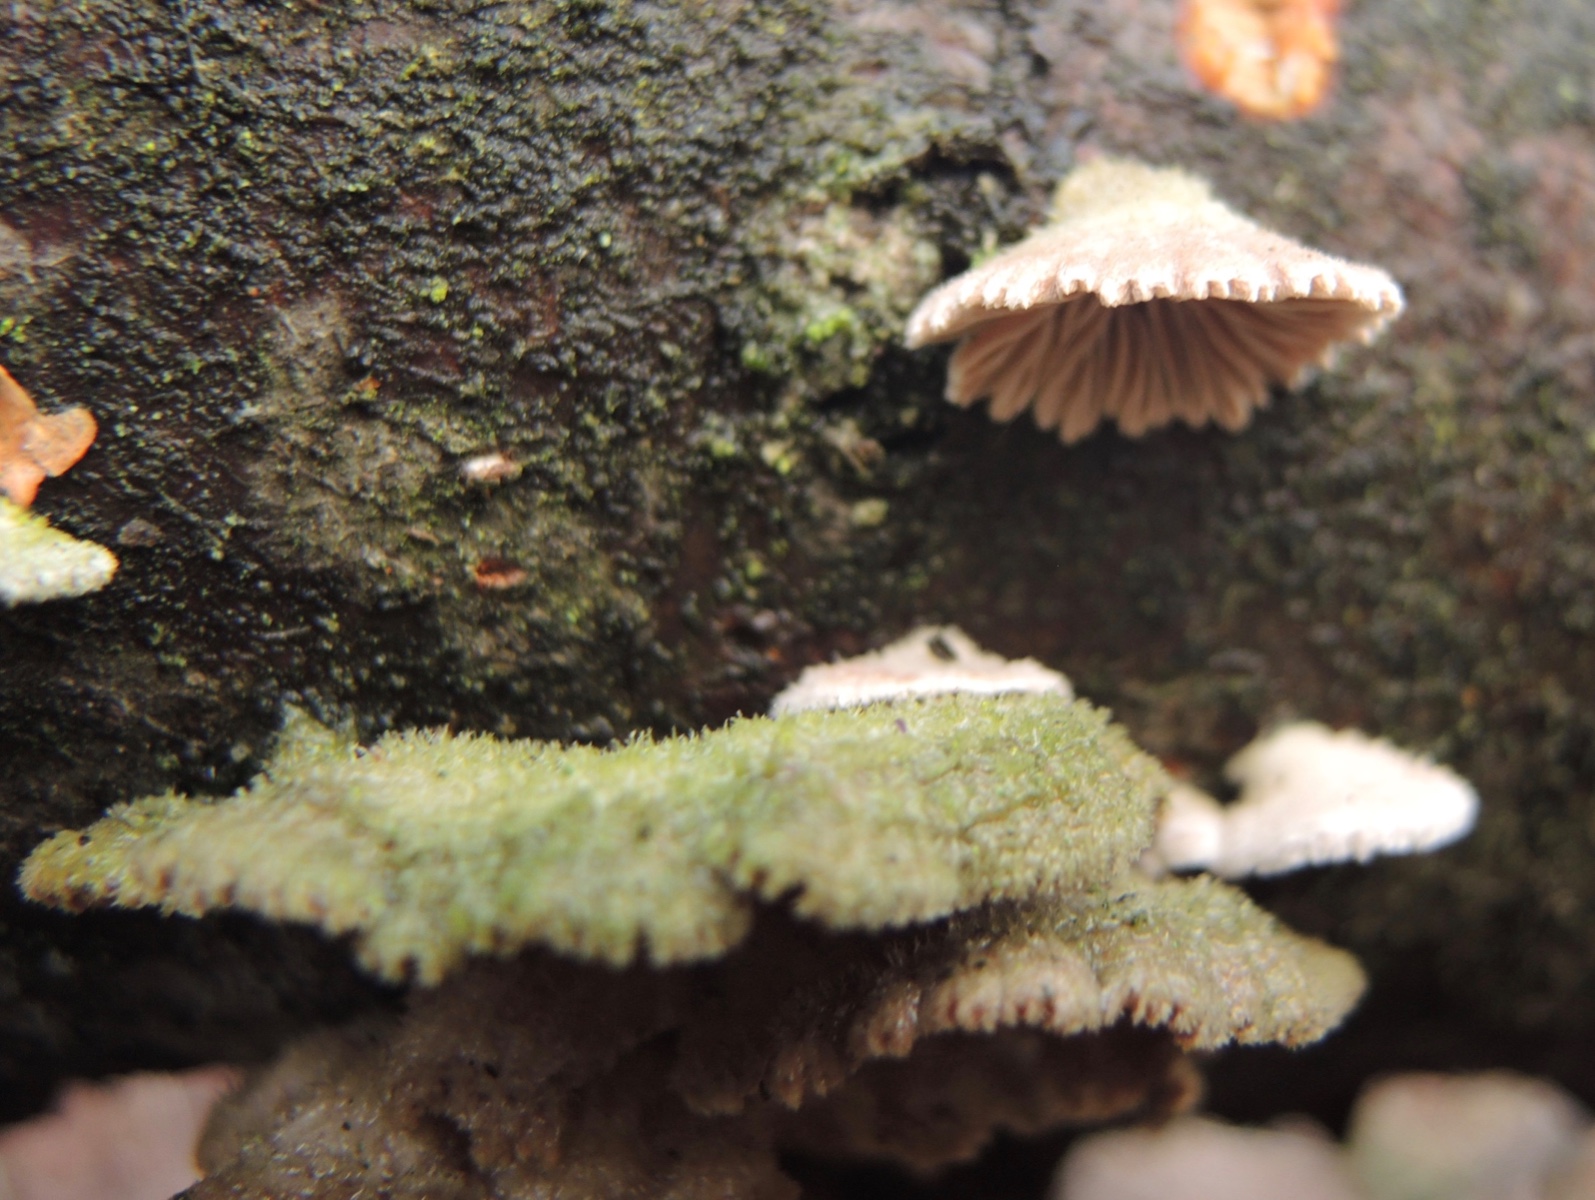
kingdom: Fungi
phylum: Basidiomycota
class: Agaricomycetes
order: Agaricales
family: Schizophyllaceae
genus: Schizophyllum
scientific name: Schizophyllum commune
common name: kløvblad
